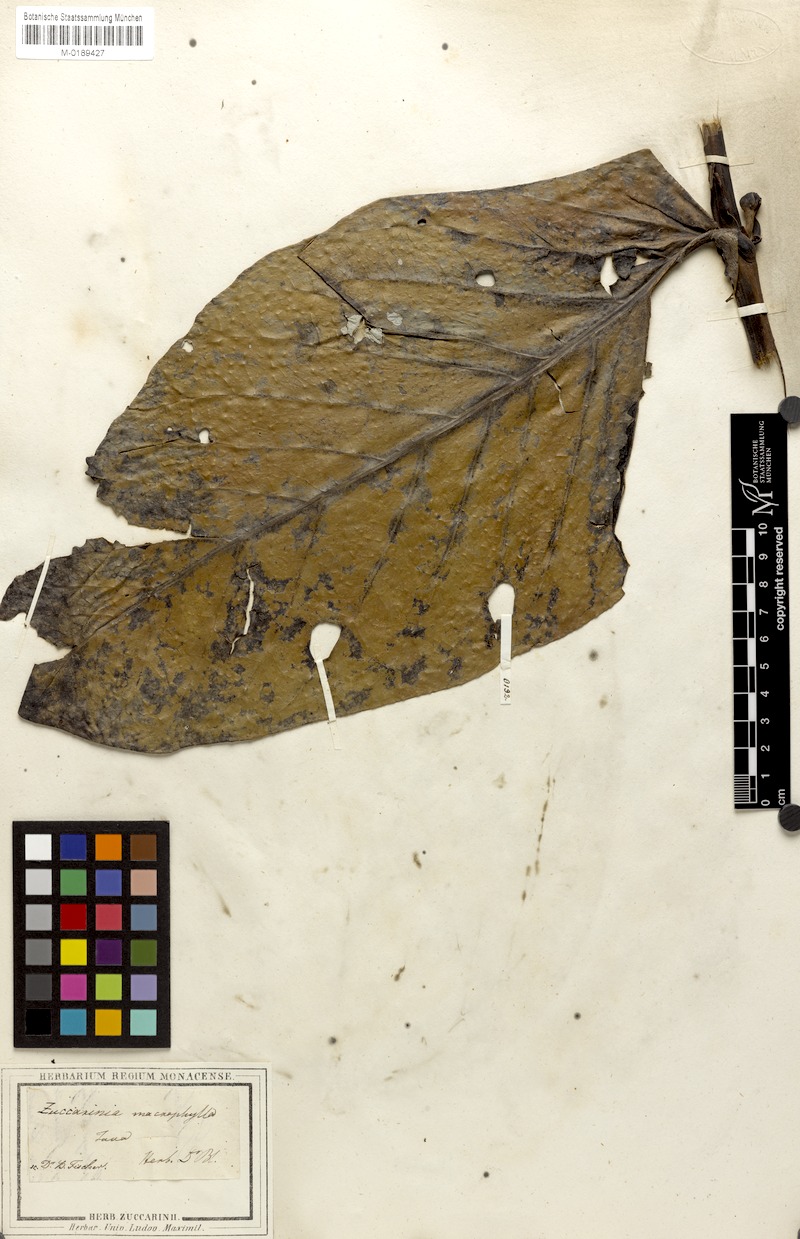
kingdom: Plantae
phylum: Tracheophyta
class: Magnoliopsida
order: Gentianales
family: Rubiaceae
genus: Zuccarinia
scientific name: Zuccarinia macrophylla
